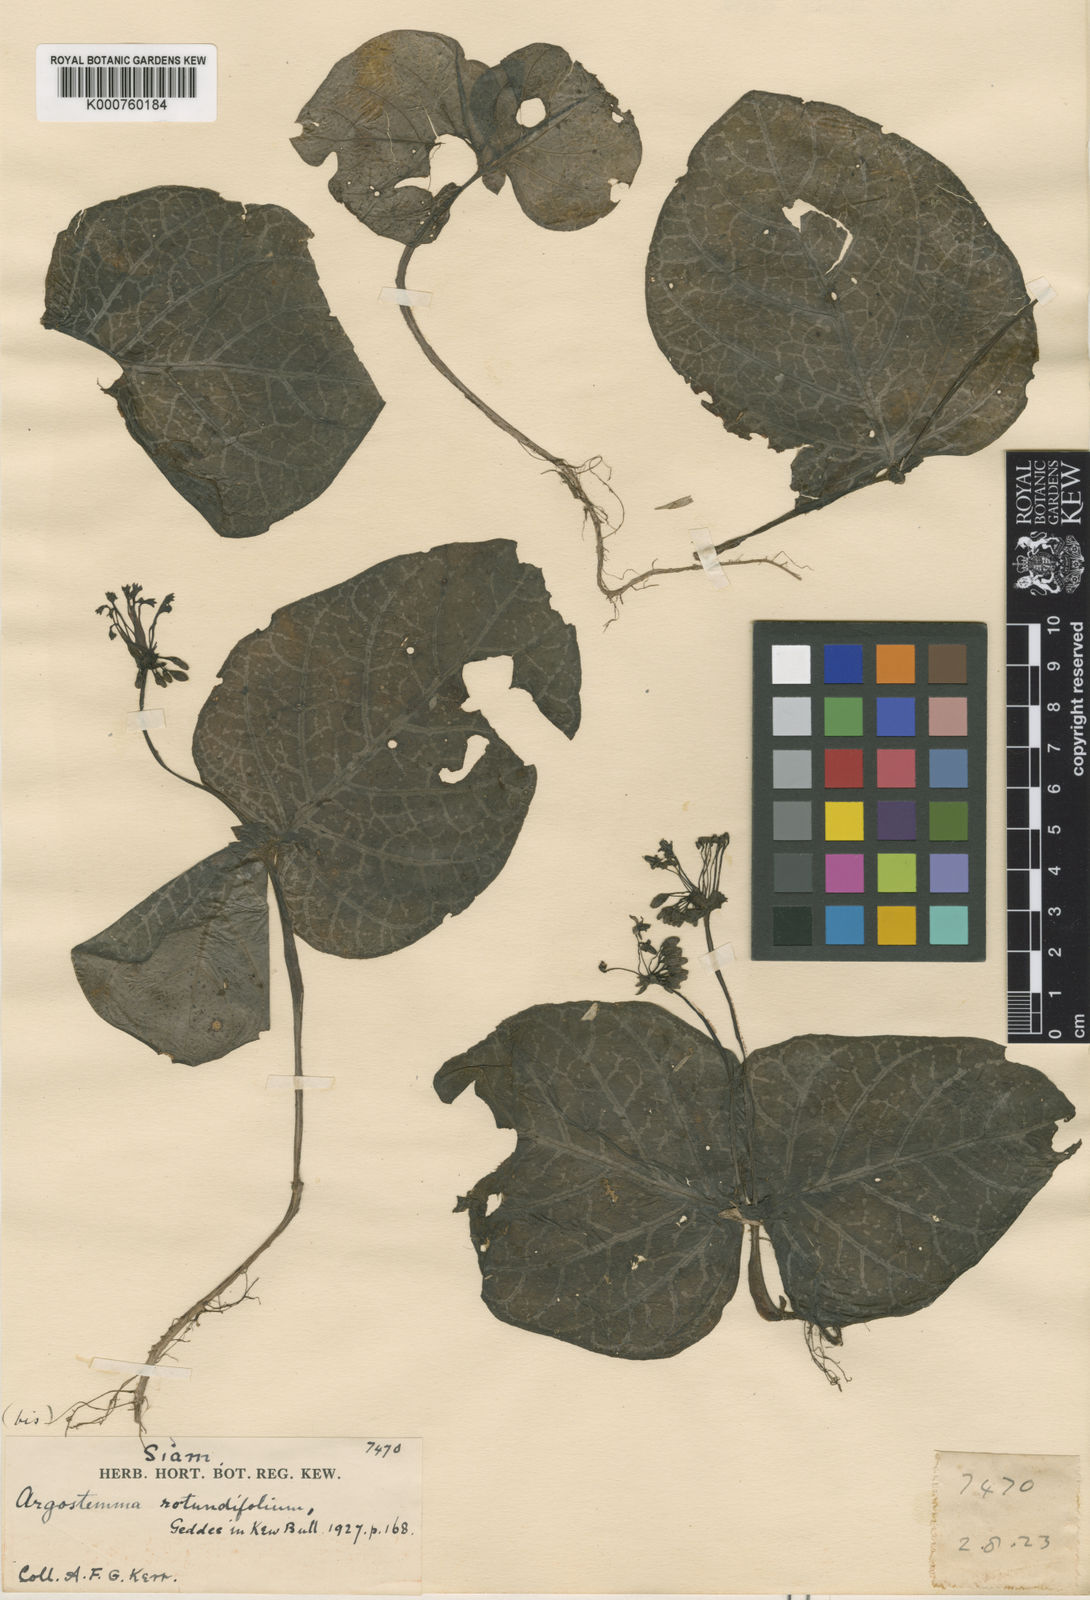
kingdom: Plantae
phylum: Tracheophyta
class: Magnoliopsida
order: Gentianales
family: Rubiaceae
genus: Argostemma
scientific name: Argostemma pictum
